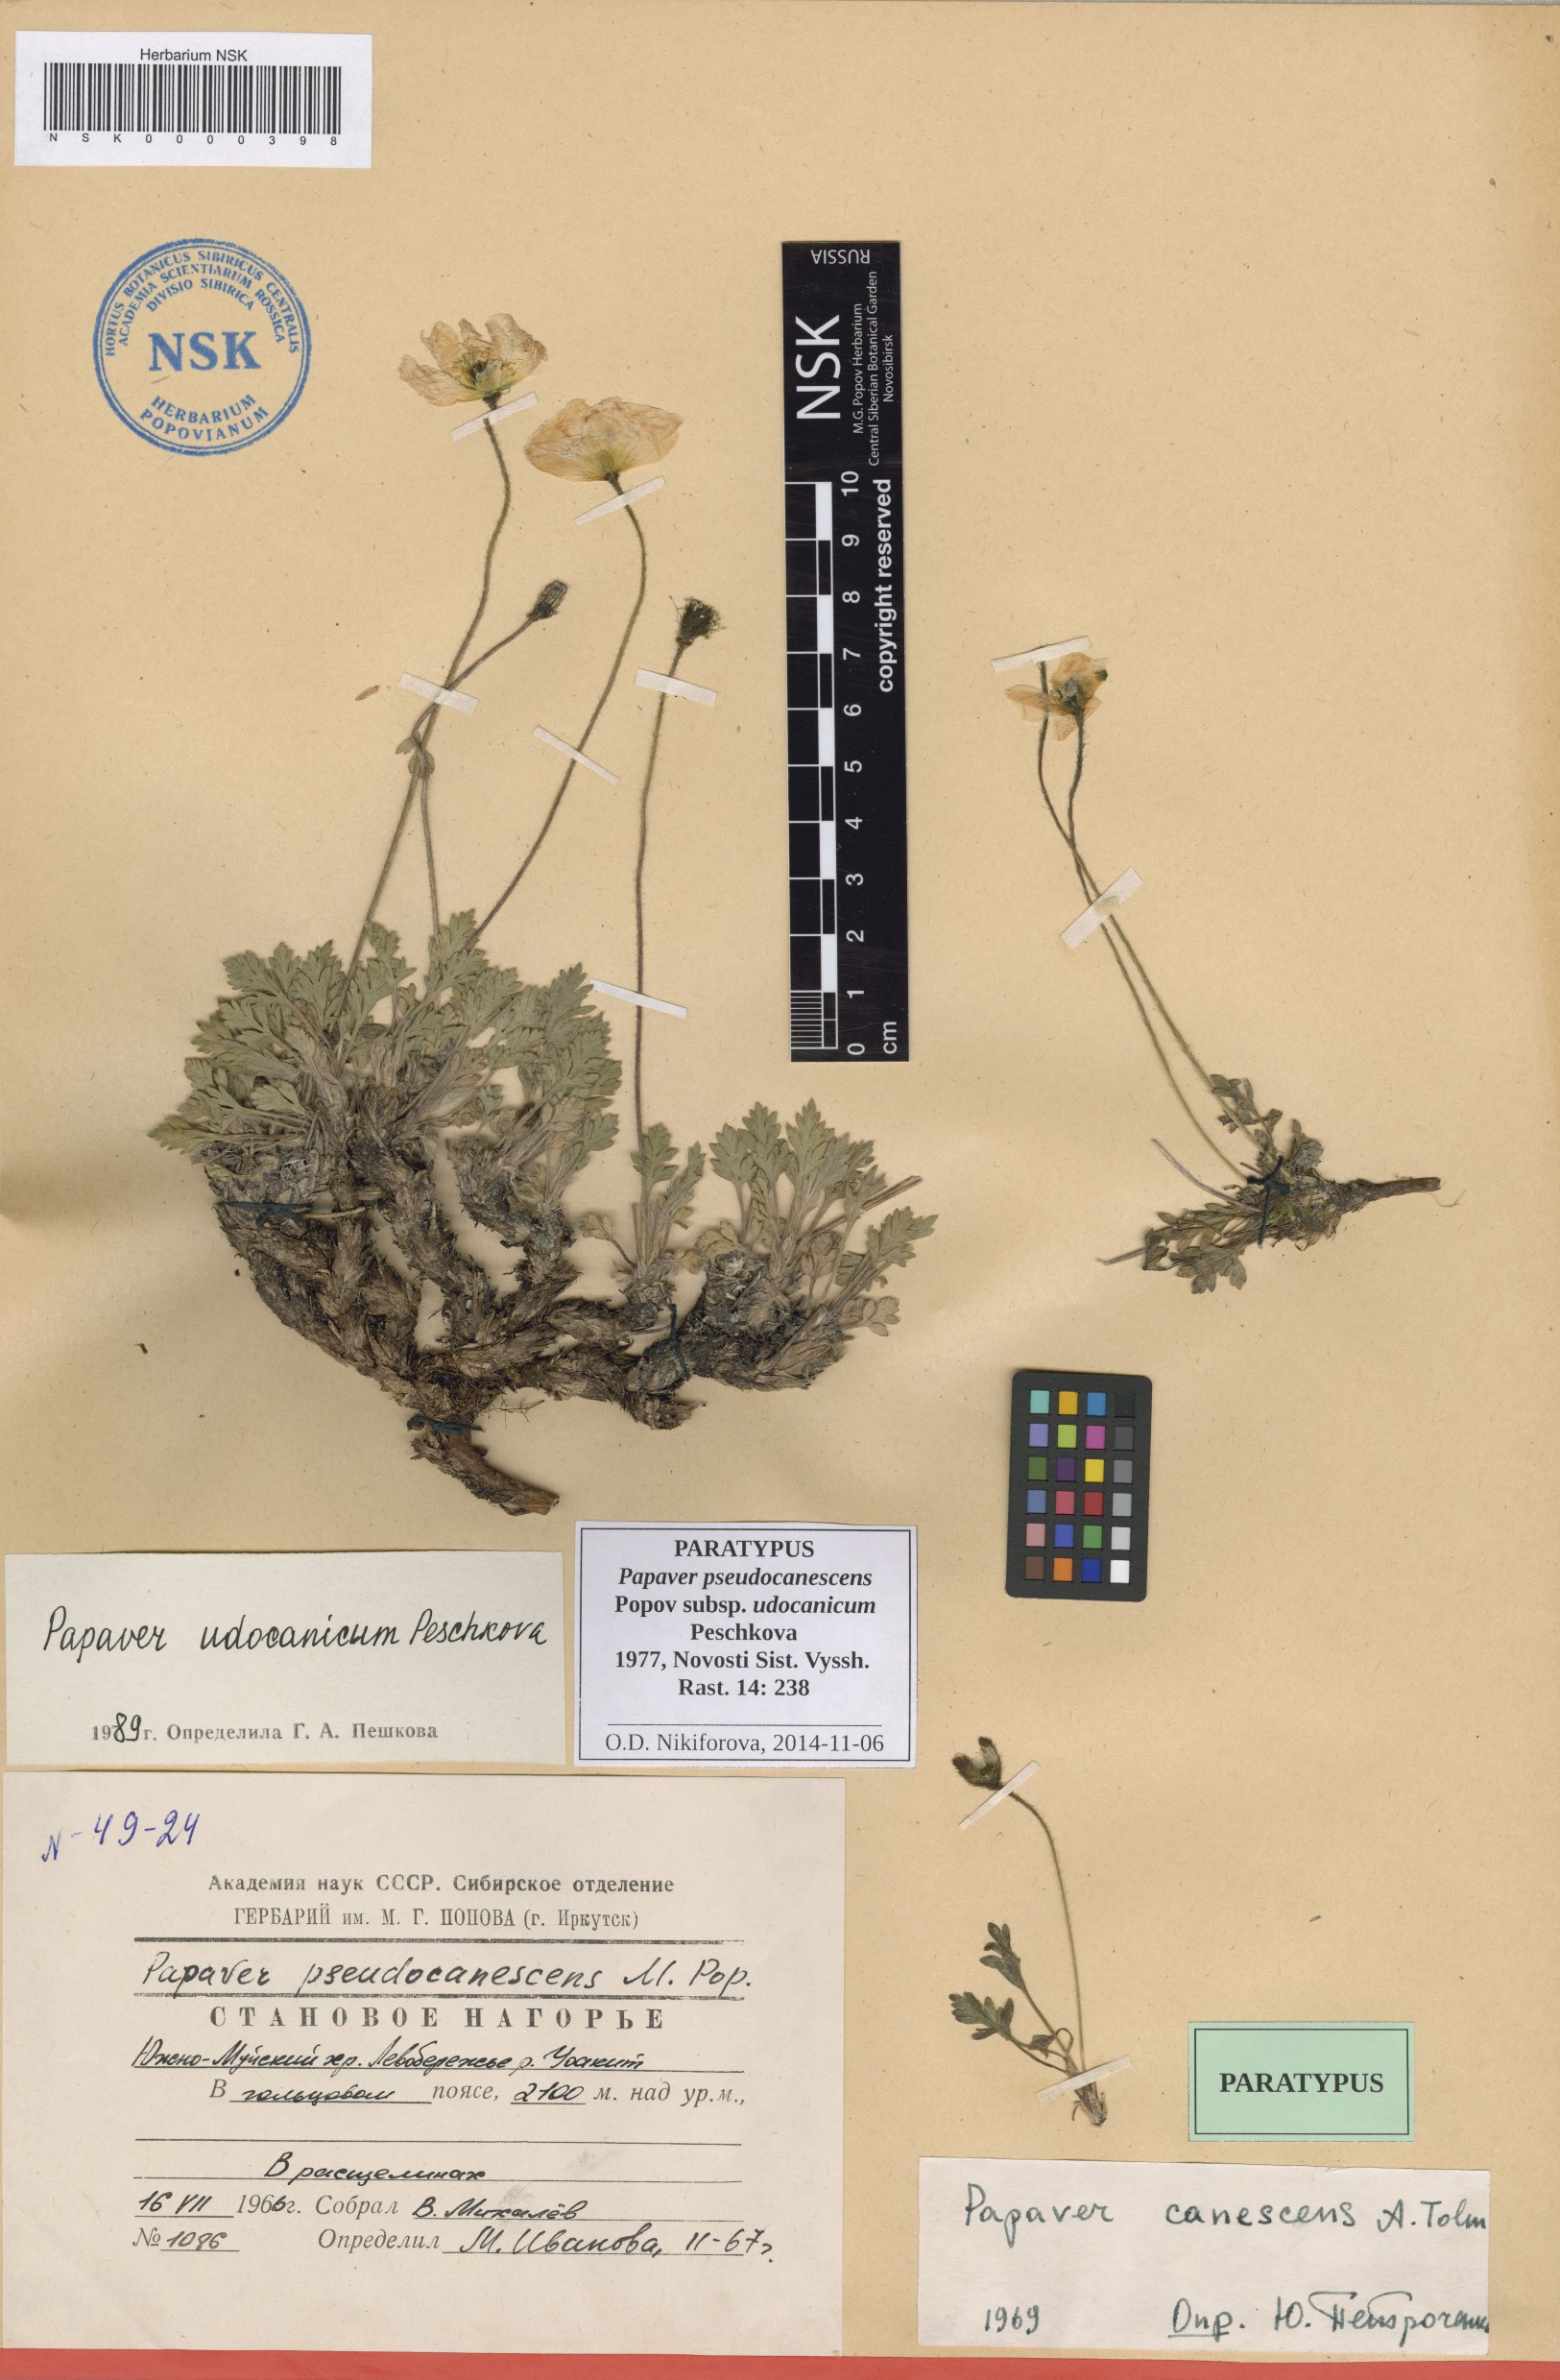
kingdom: Plantae
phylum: Tracheophyta
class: Magnoliopsida
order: Ranunculales
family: Papaveraceae
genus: Papaver
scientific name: Papaver udocanicum
